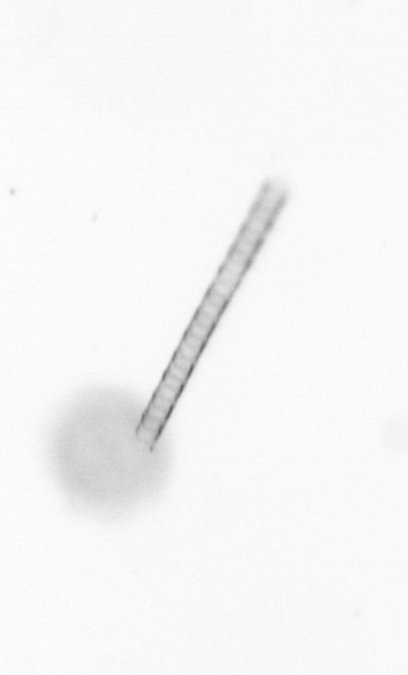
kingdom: Chromista
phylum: Ochrophyta
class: Bacillariophyceae
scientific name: Bacillariophyceae
